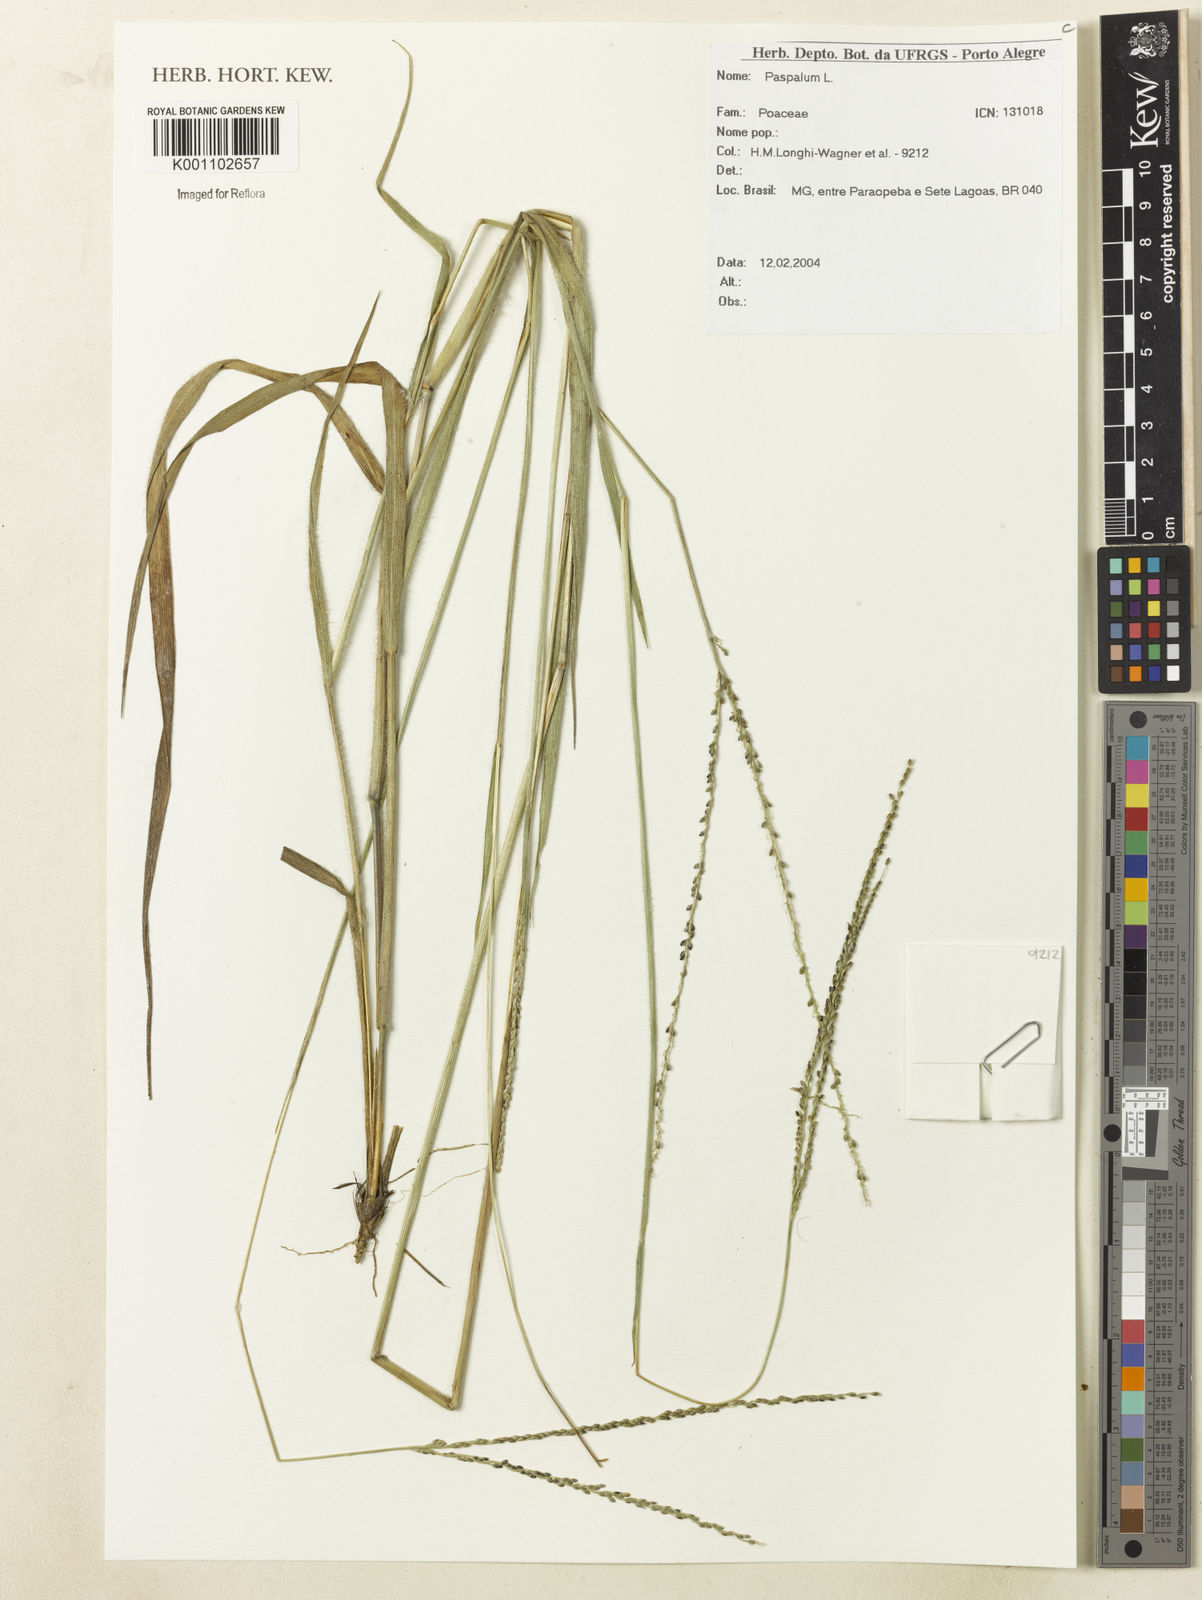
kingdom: Plantae
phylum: Tracheophyta
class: Liliopsida
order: Poales
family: Poaceae
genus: Paspalum
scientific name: Paspalum
